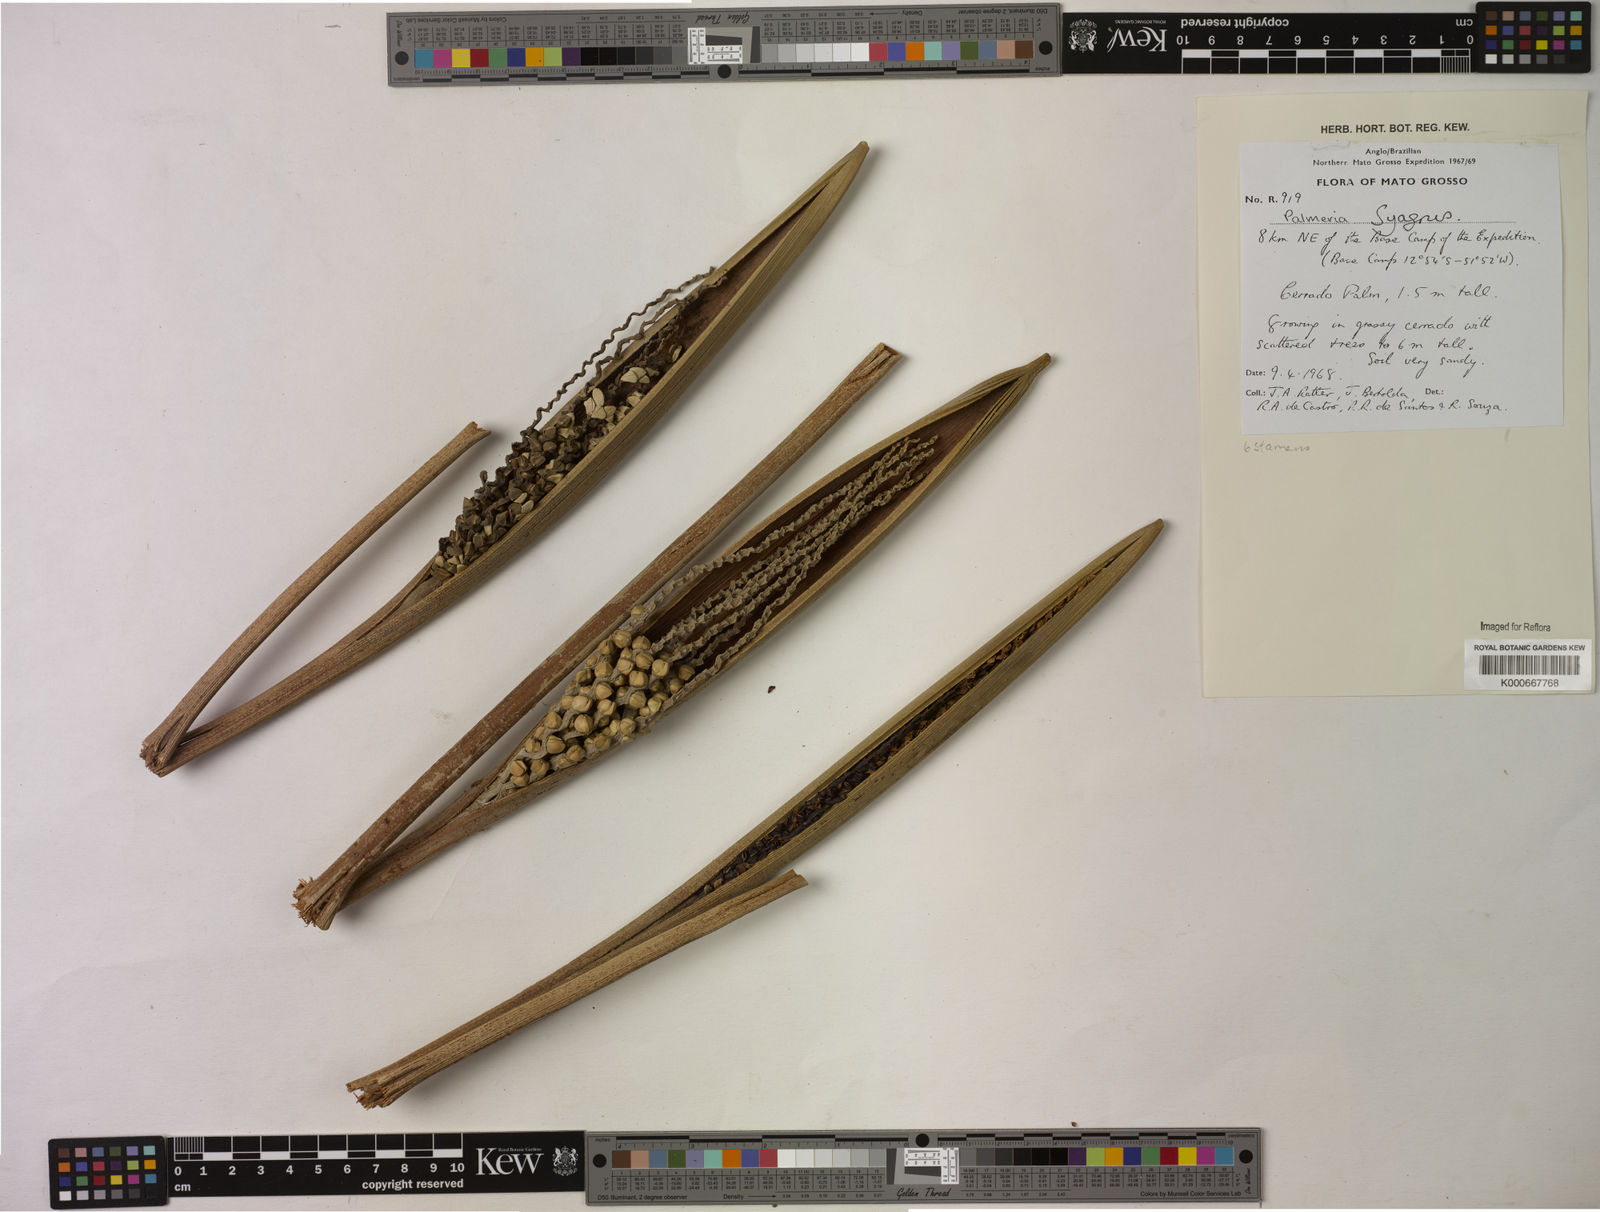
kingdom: Plantae
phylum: Tracheophyta
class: Liliopsida
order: Arecales
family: Arecaceae
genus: Syagrus
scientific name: Syagrus
